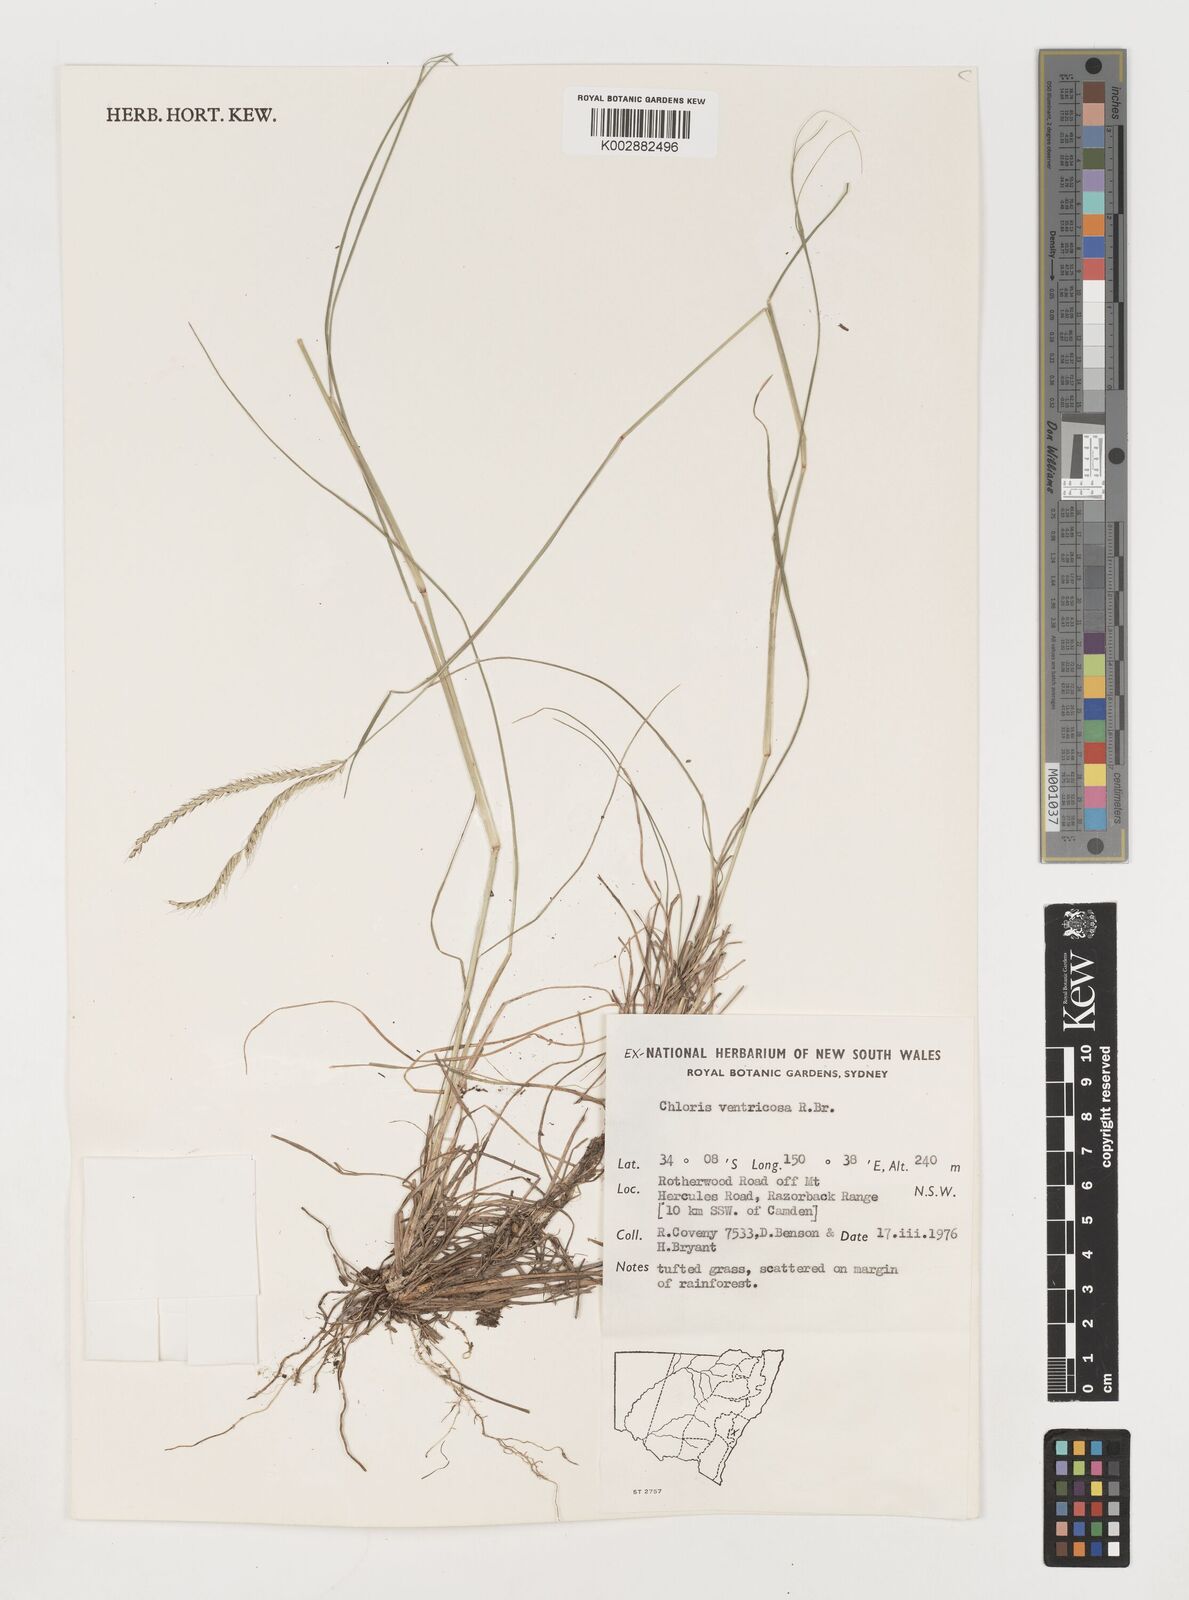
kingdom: Plantae
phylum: Tracheophyta
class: Liliopsida
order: Poales
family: Poaceae
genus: Chloris
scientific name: Chloris ventricosa
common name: Australian windmill grass
